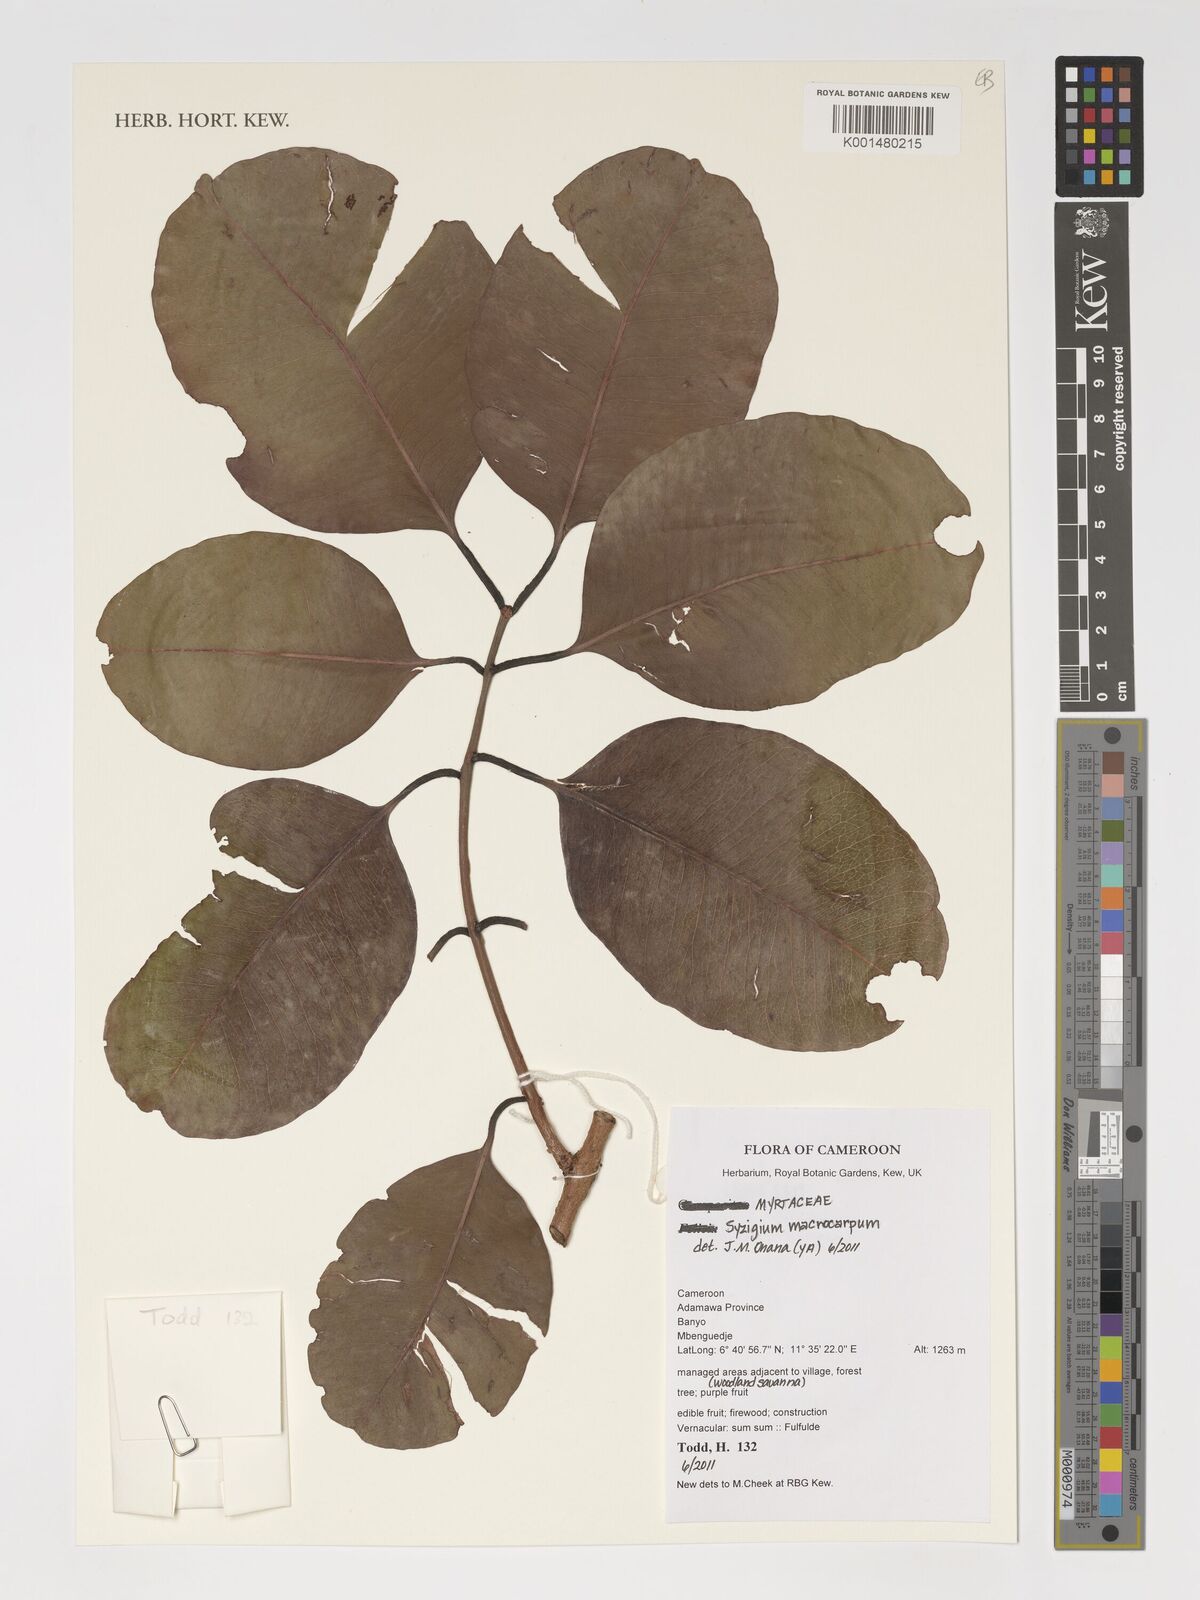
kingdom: Plantae
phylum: Tracheophyta
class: Magnoliopsida
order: Myrtales
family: Myrtaceae
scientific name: Myrtaceae
